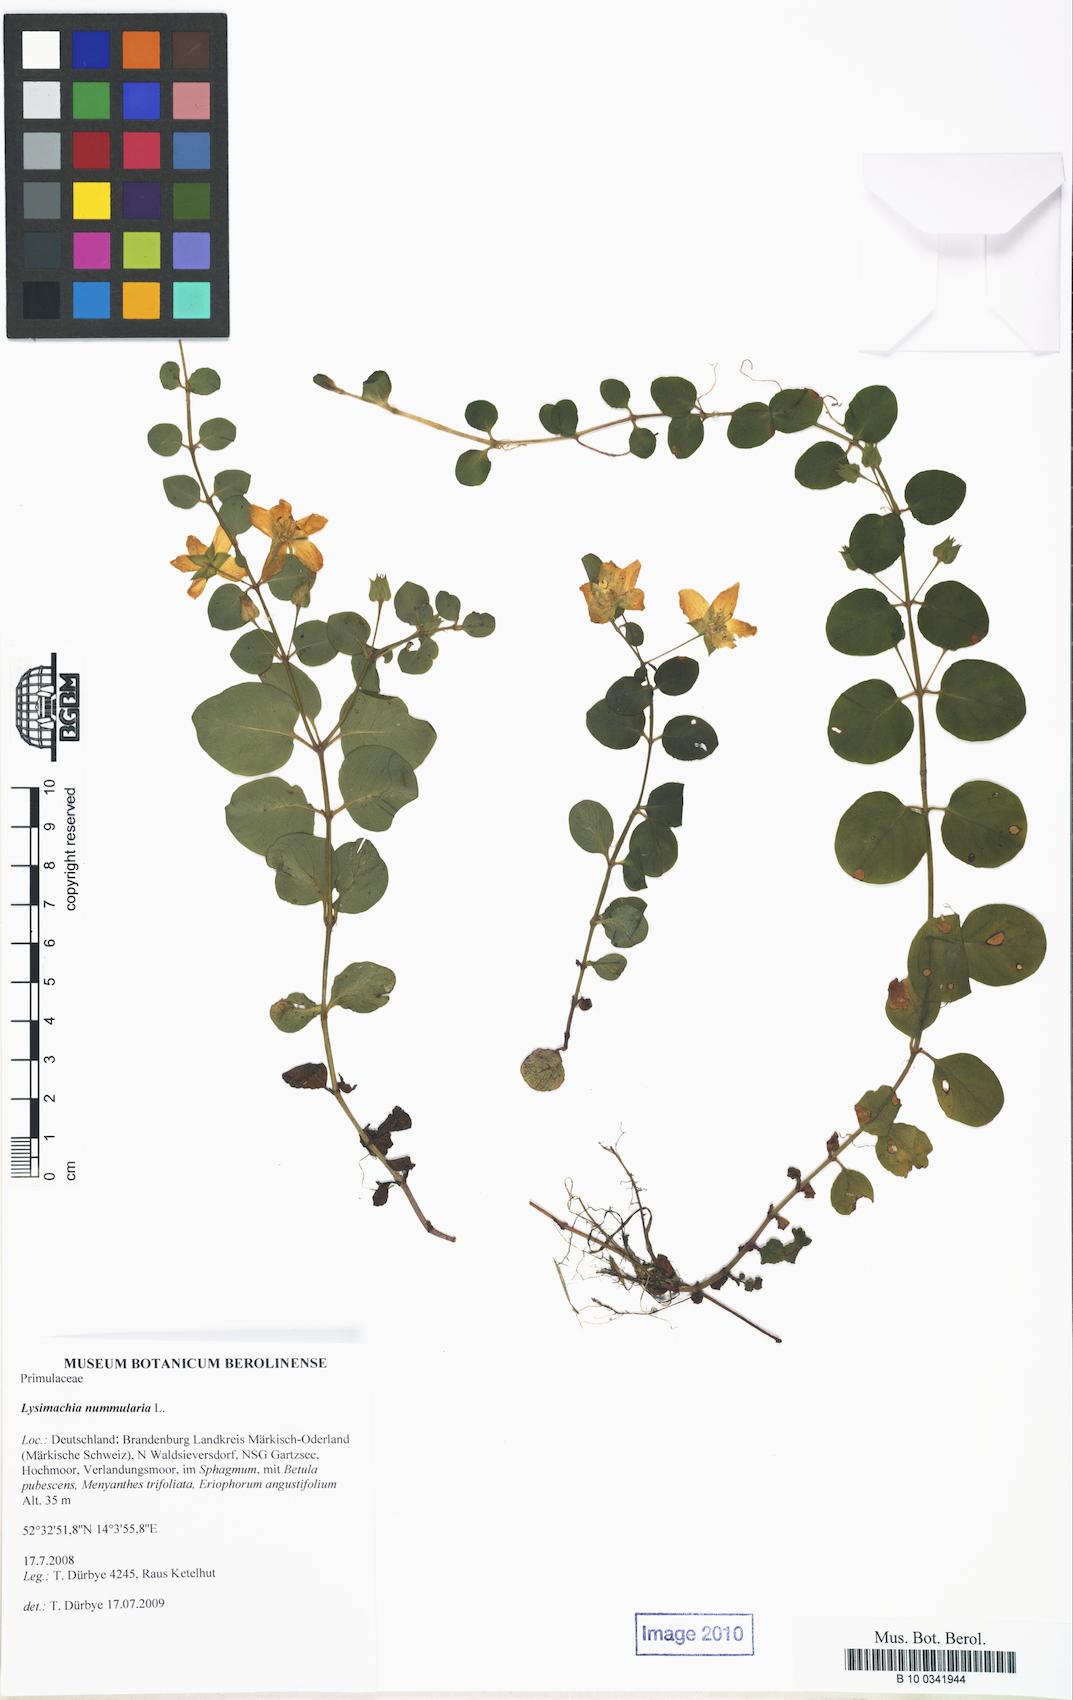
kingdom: Plantae
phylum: Tracheophyta
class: Magnoliopsida
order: Ericales
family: Primulaceae
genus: Lysimachia
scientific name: Lysimachia nummularia
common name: Moneywort
